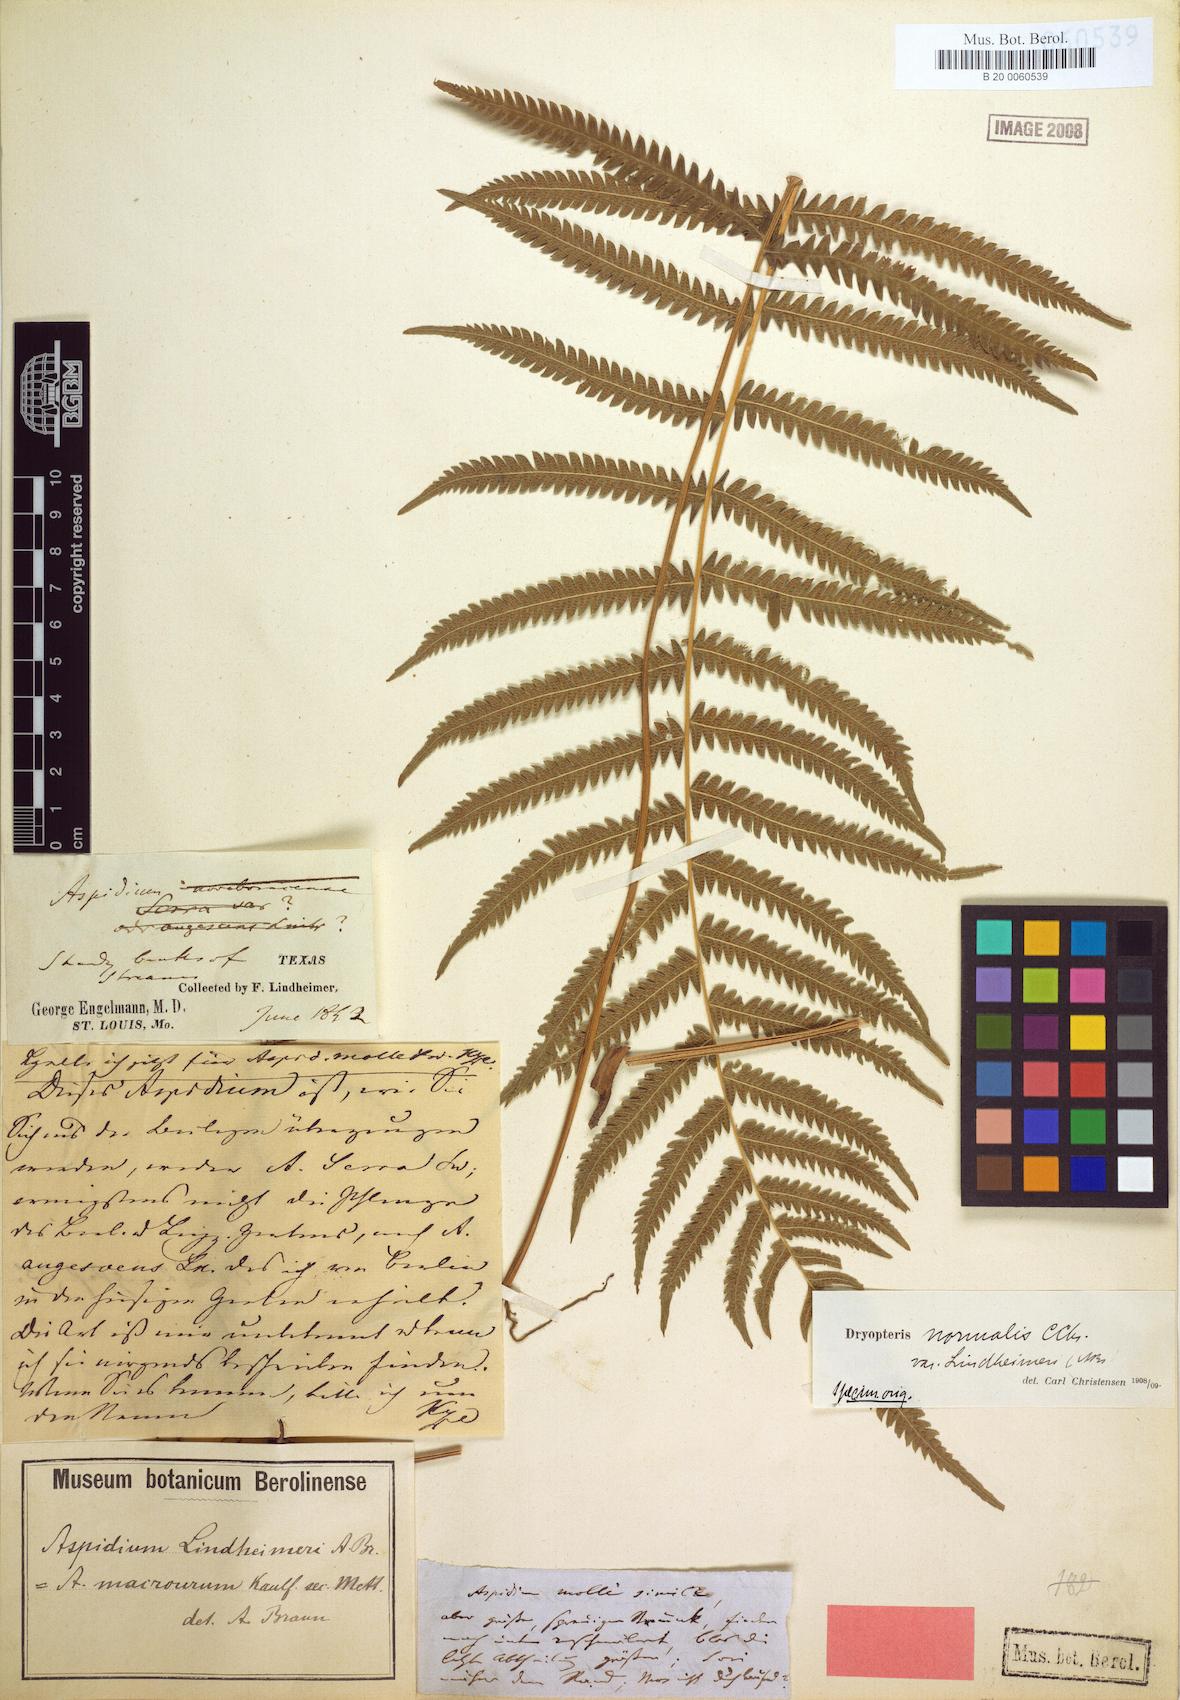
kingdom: Plantae
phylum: Tracheophyta
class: Polypodiopsida
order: Polypodiales
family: Thelypteridaceae
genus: Pelazoneuron
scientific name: Pelazoneuron ovatum
